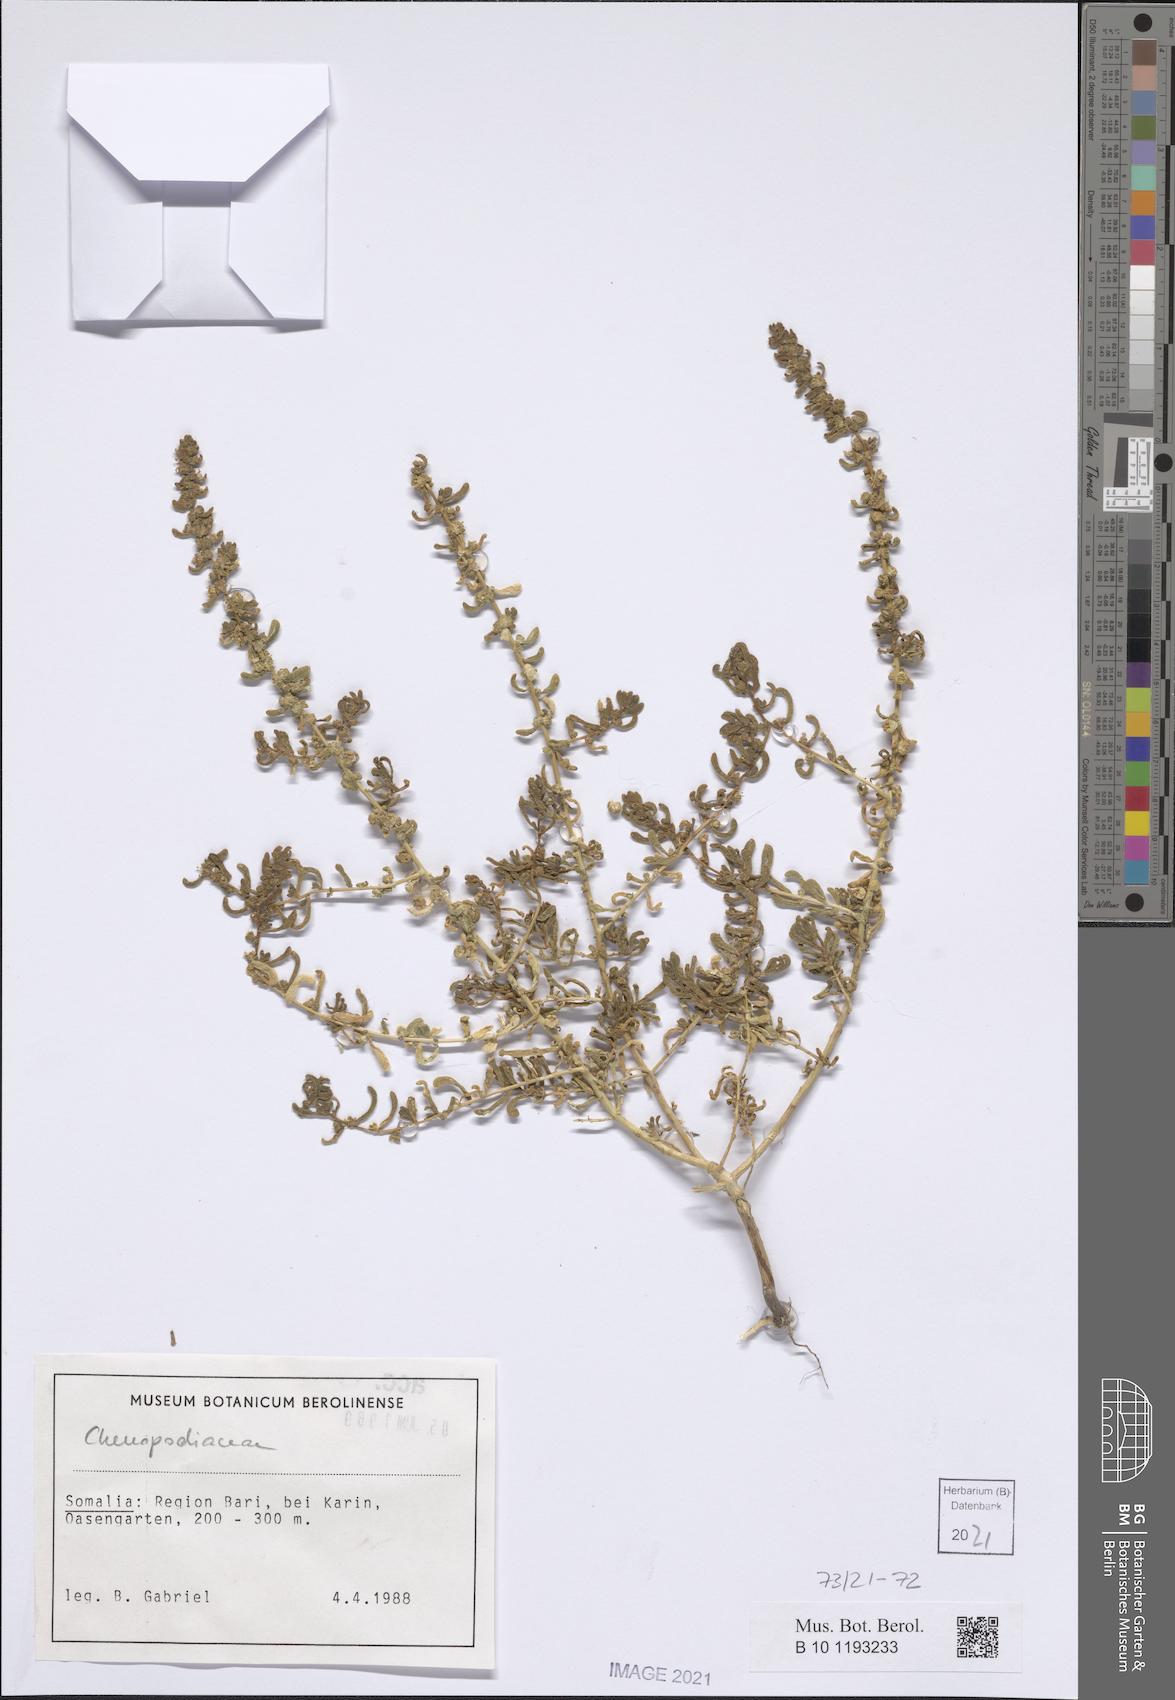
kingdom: Plantae
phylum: Tracheophyta
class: Magnoliopsida
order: Caryophyllales
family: Amaranthaceae
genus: Suaeda
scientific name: Suaeda aegyptiaca
